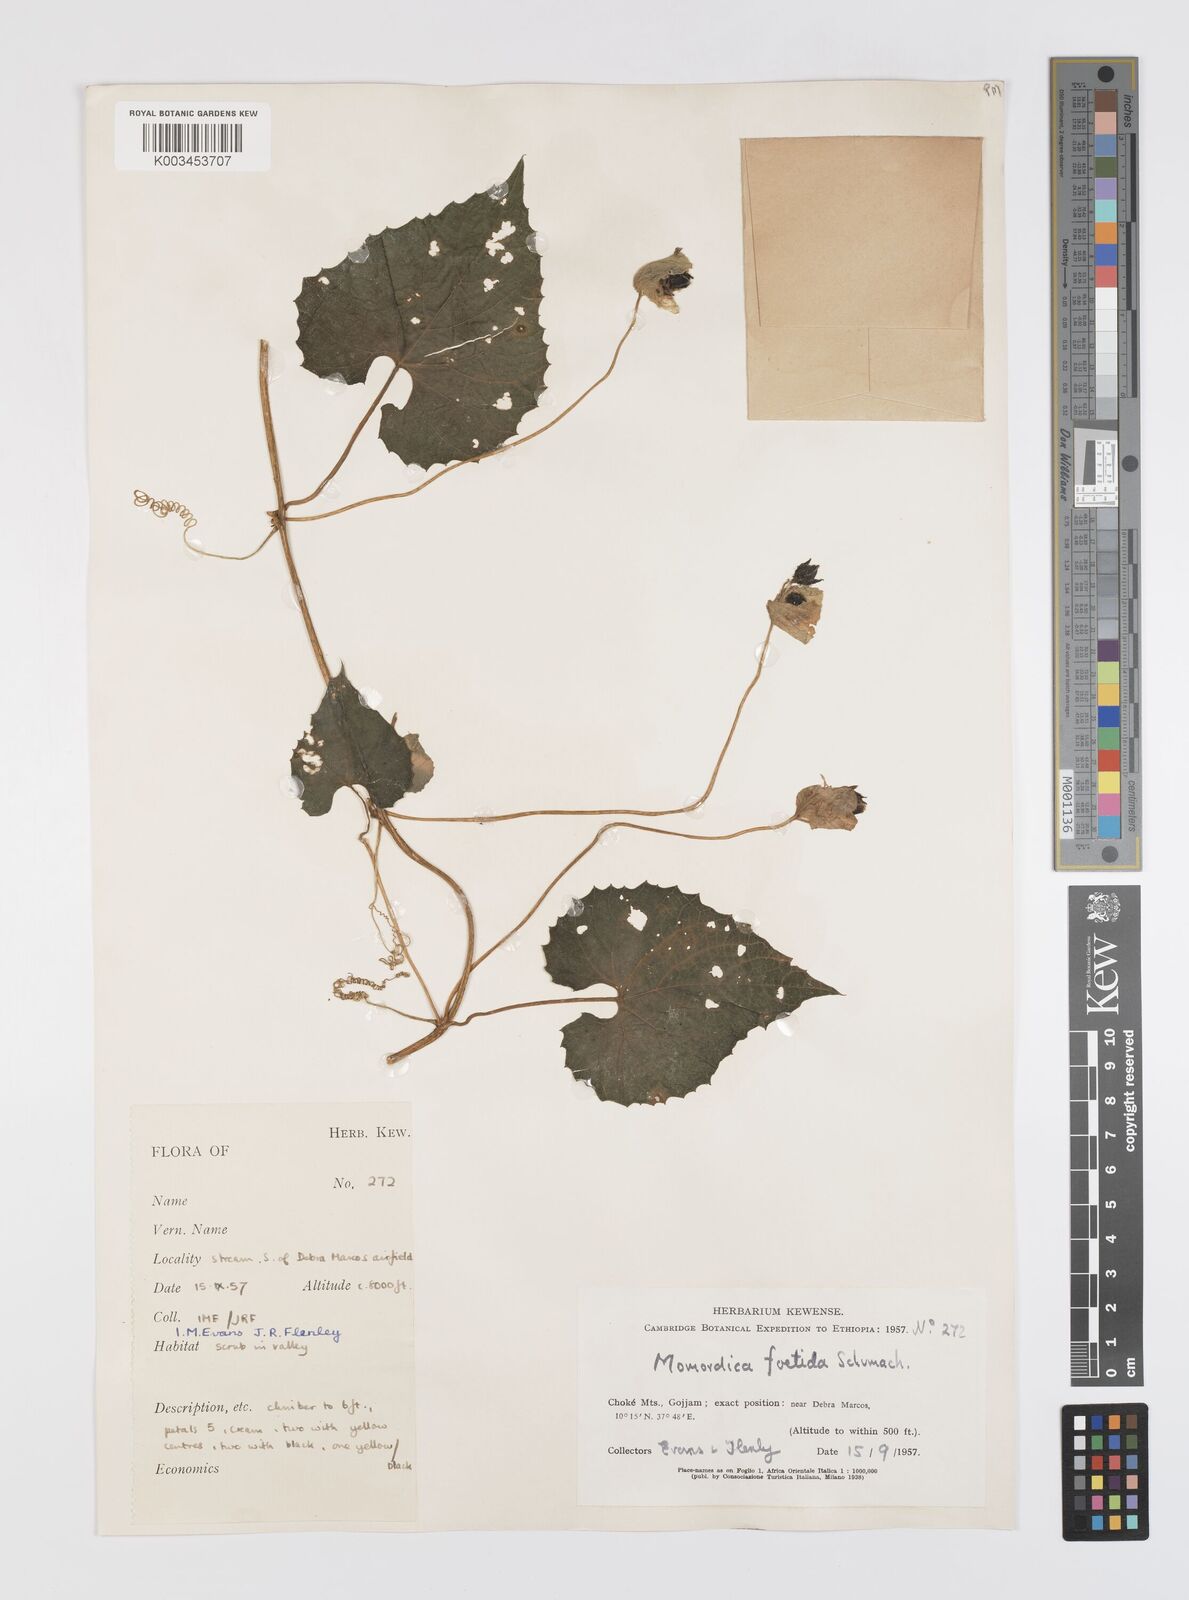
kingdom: Plantae
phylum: Tracheophyta
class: Magnoliopsida
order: Cucurbitales
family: Cucurbitaceae
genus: Momordica
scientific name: Momordica foetida
